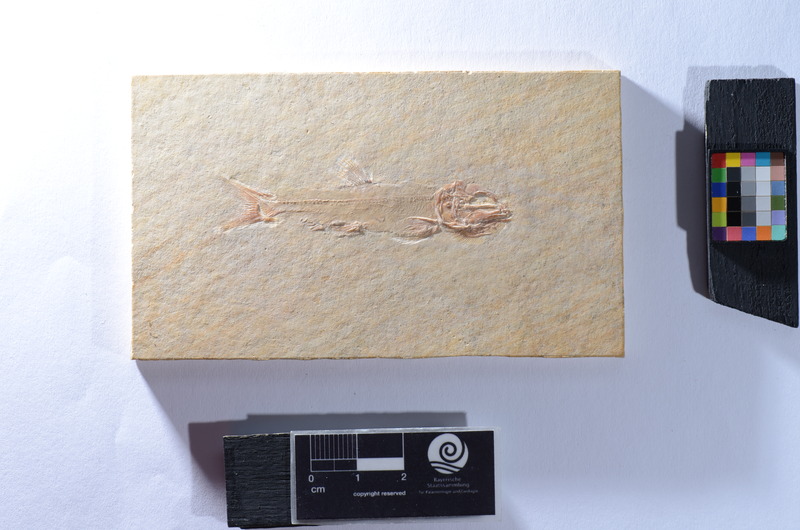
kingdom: Animalia
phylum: Chordata
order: Amiiformes
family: Liodesmidae
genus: Liodesmus
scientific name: Liodesmus sprattiformis
